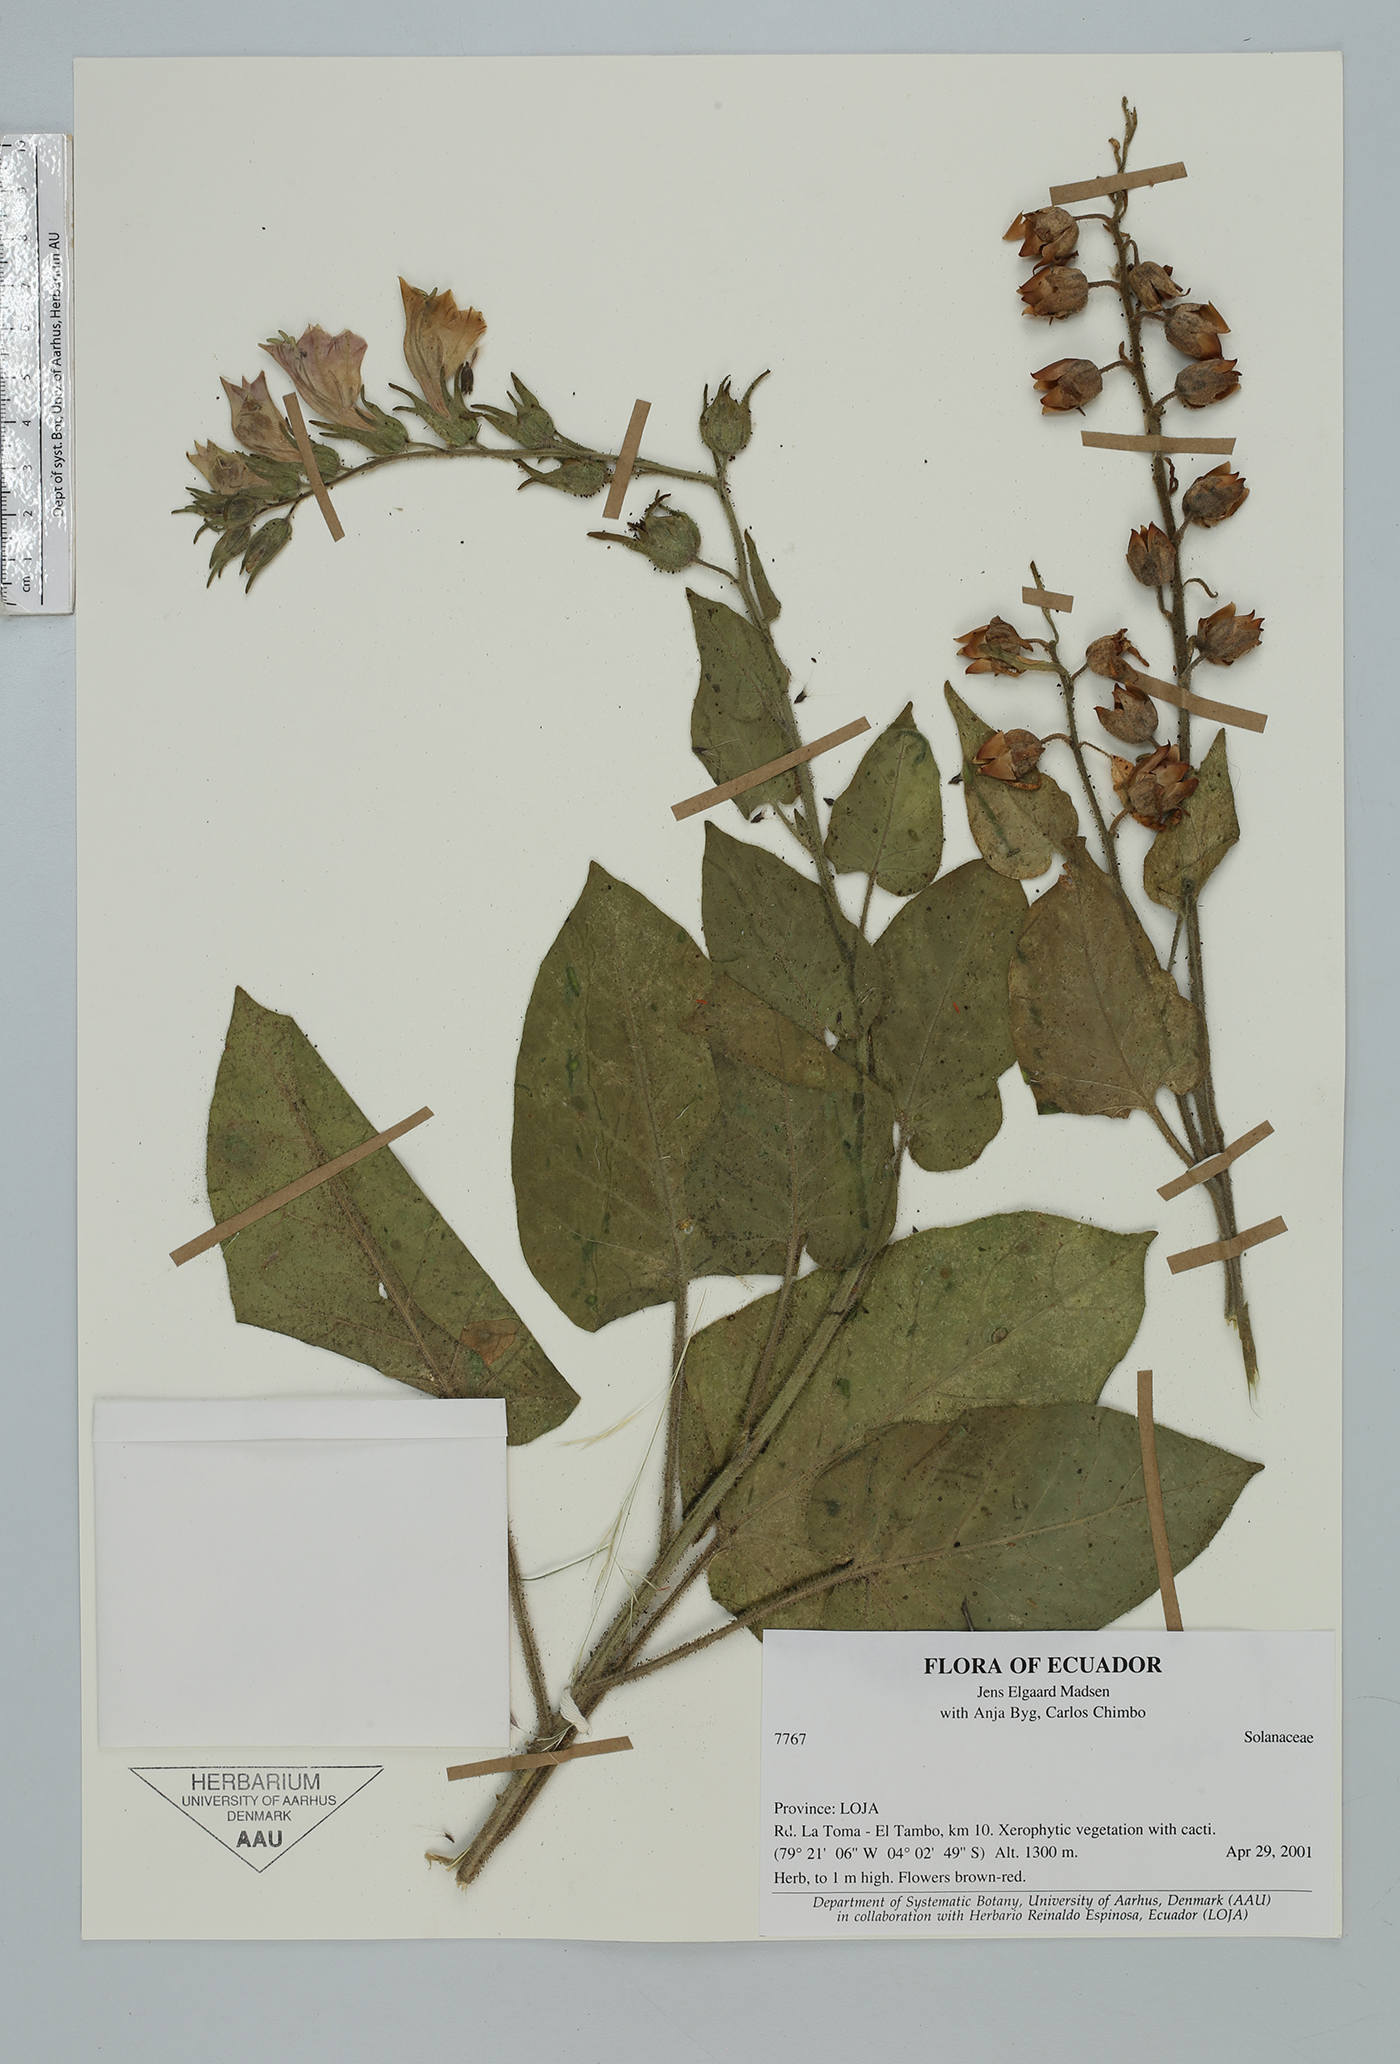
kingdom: Plantae
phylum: Tracheophyta
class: Magnoliopsida
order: Solanales
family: Solanaceae
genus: Nicotiana
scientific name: Nicotiana
